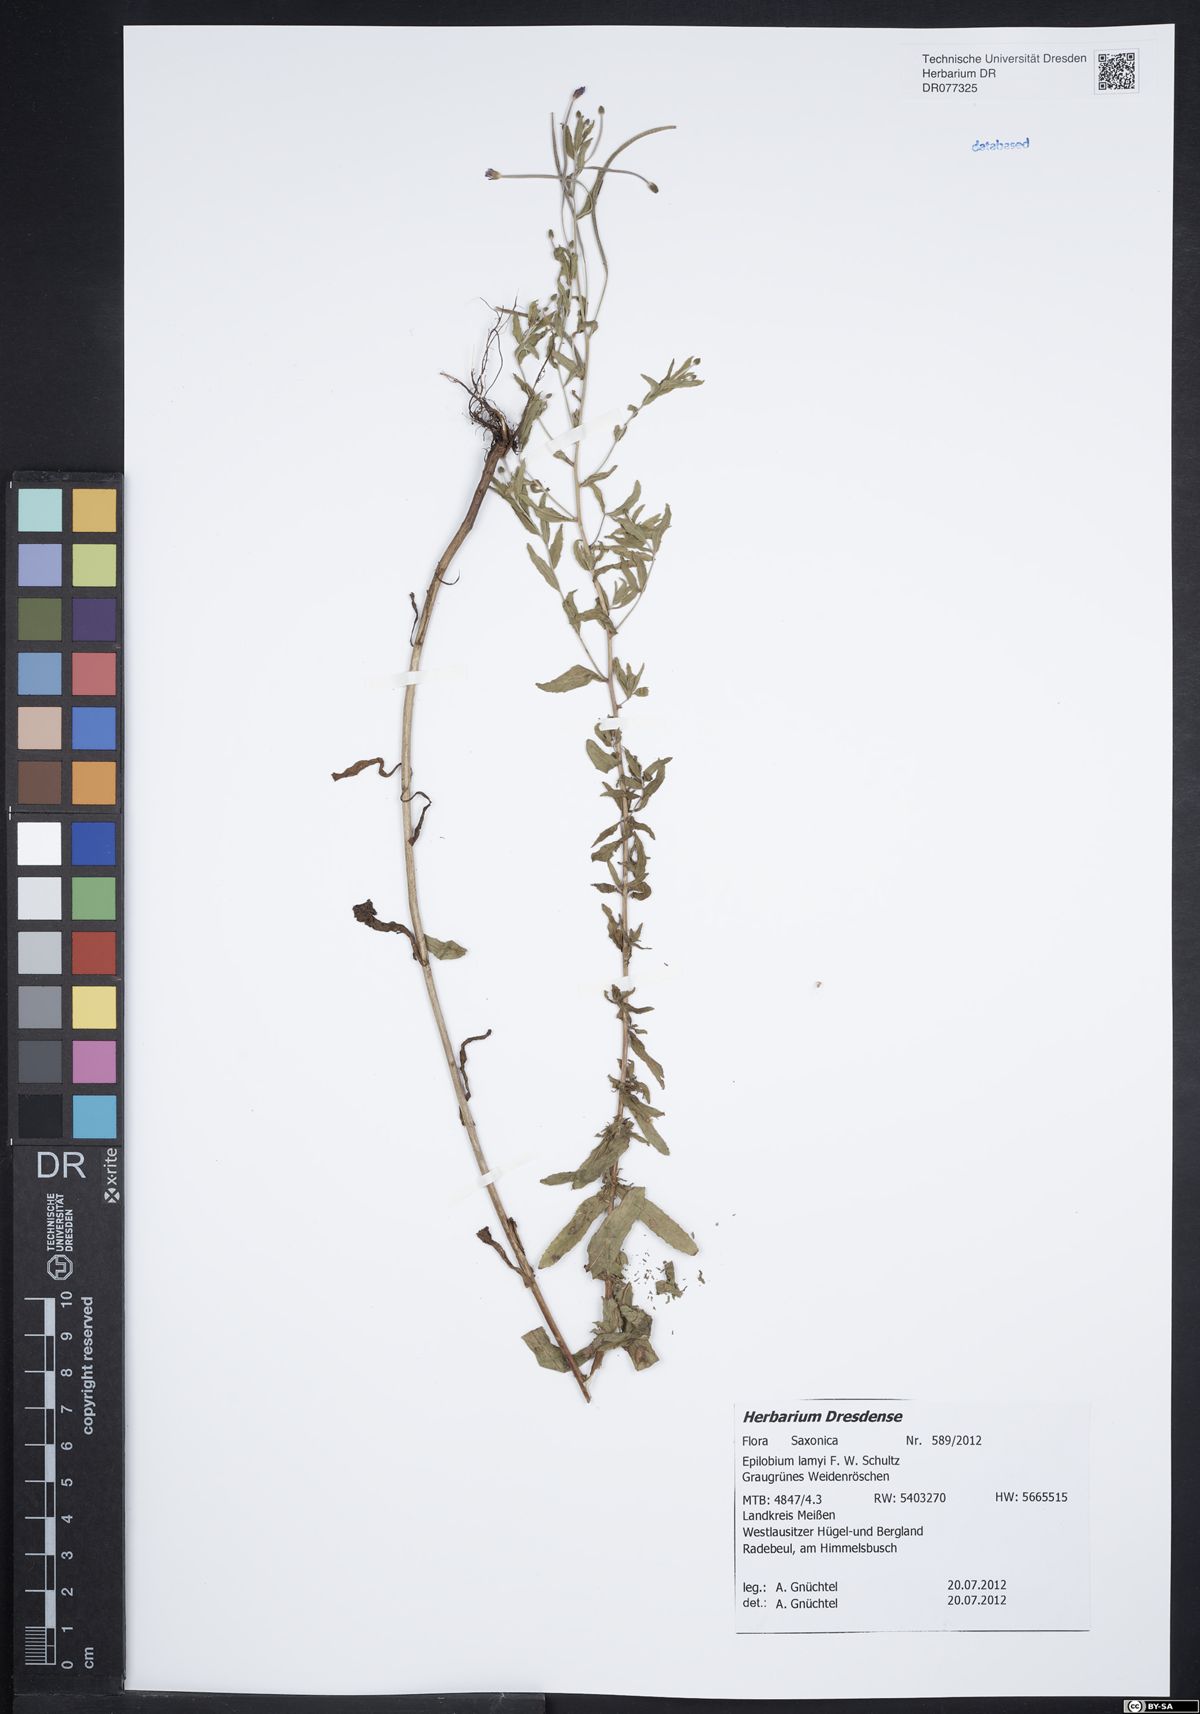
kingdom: Plantae
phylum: Tracheophyta
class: Magnoliopsida
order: Myrtales
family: Onagraceae
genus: Epilobium
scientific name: Epilobium lamyi
